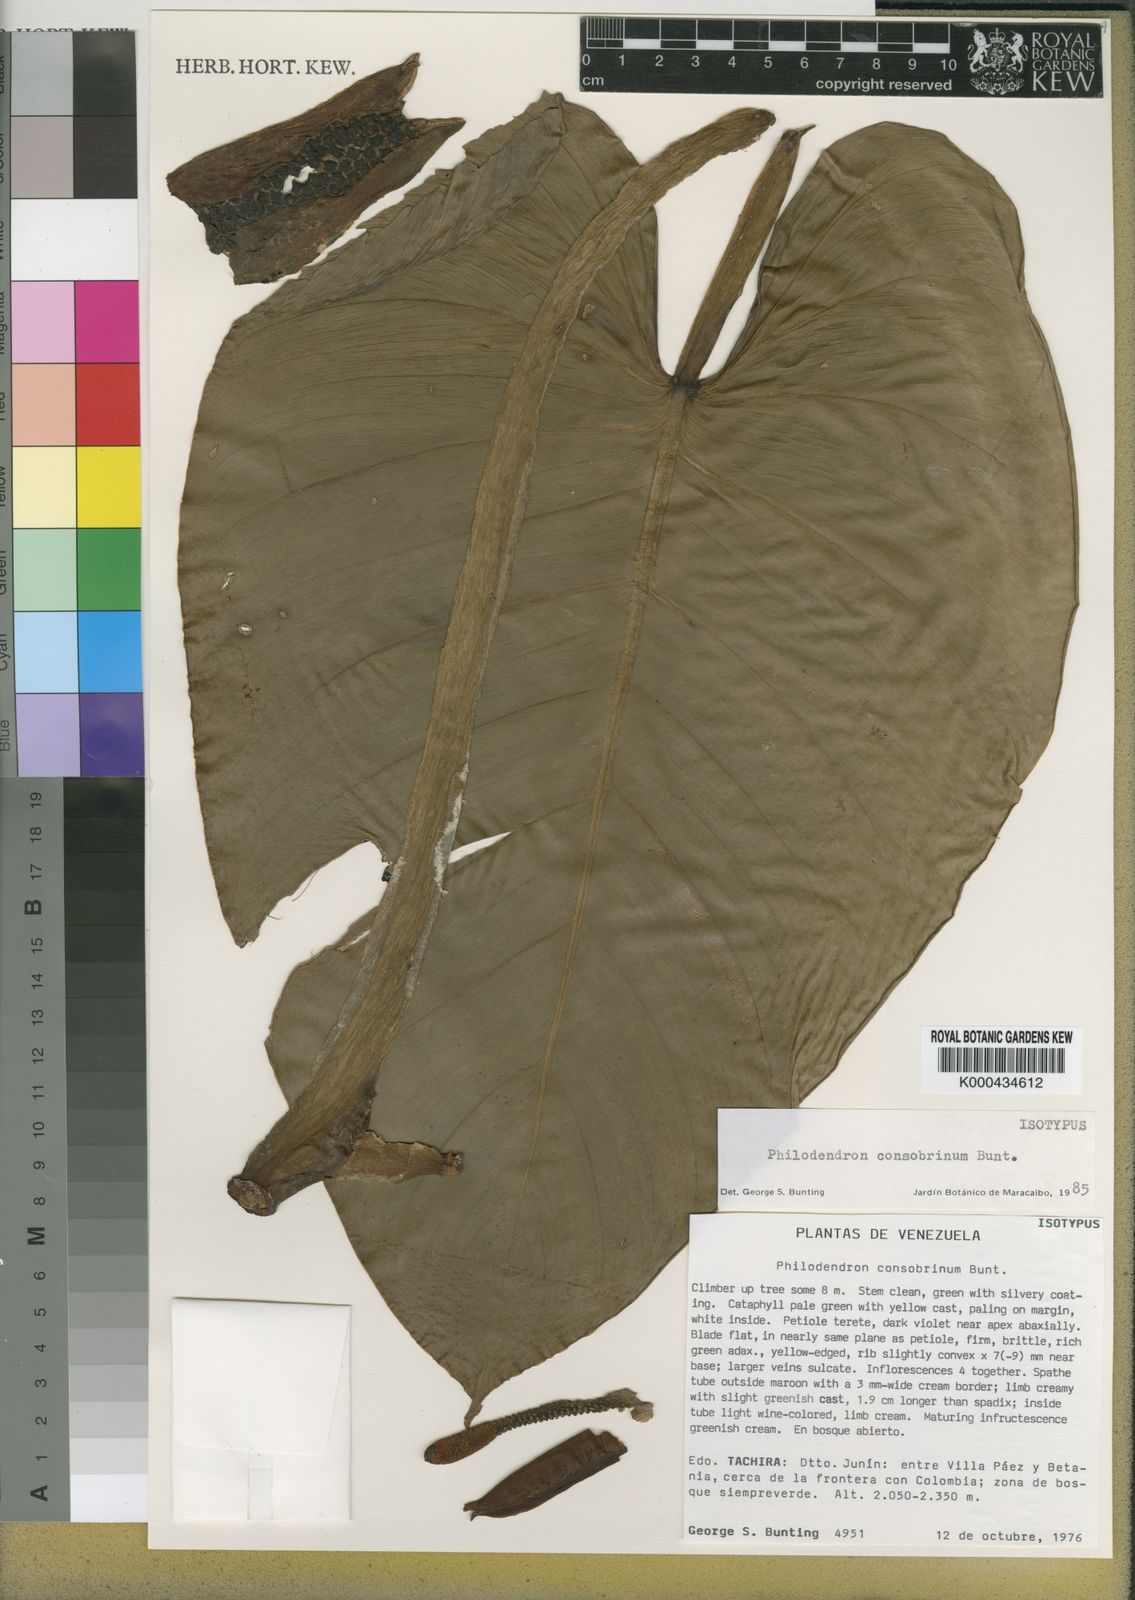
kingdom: Plantae
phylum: Tracheophyta
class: Liliopsida
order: Alismatales
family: Araceae
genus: Philodendron
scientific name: Philodendron consobrinum
